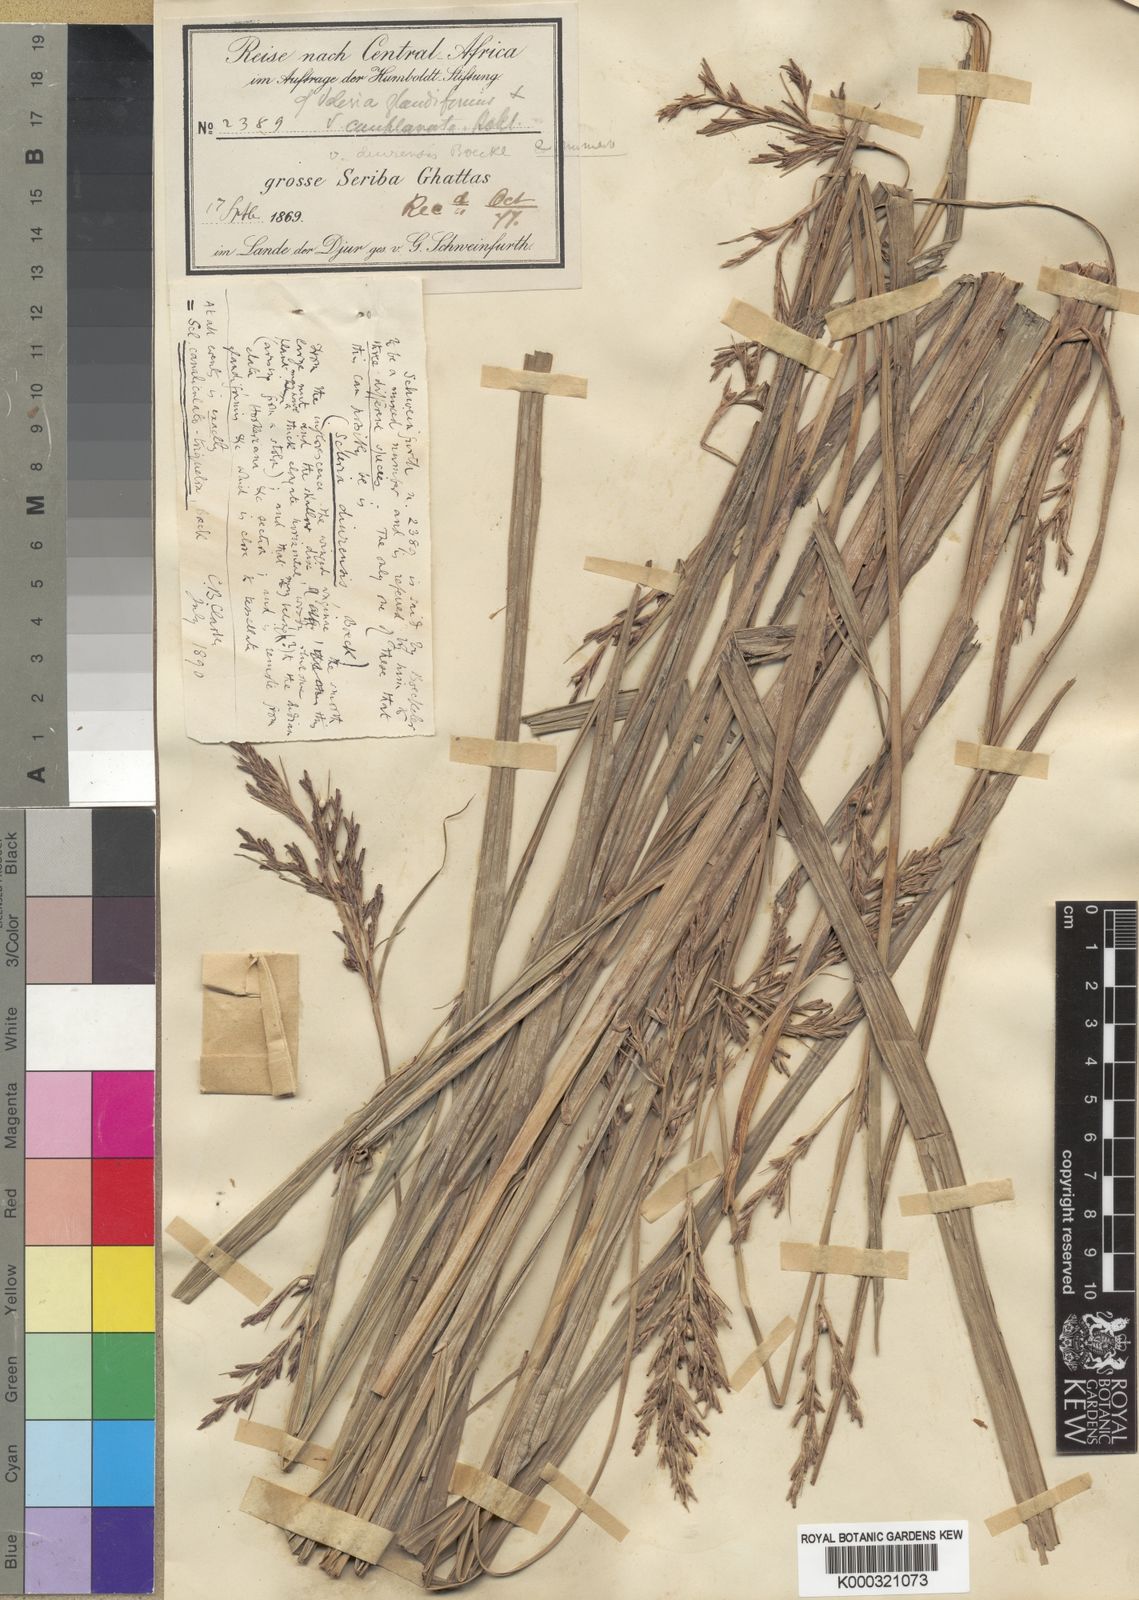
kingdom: Plantae
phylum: Tracheophyta
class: Liliopsida
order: Poales
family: Cyperaceae
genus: Scleria
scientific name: Scleria lagoensis
